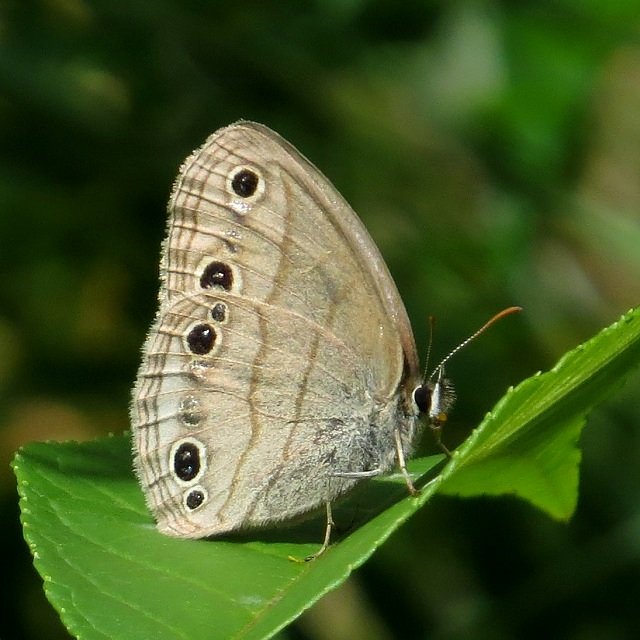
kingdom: Animalia
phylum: Arthropoda
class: Insecta
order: Lepidoptera
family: Nymphalidae
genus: Euptychia
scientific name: Euptychia cymela
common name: Little Wood Satyr
